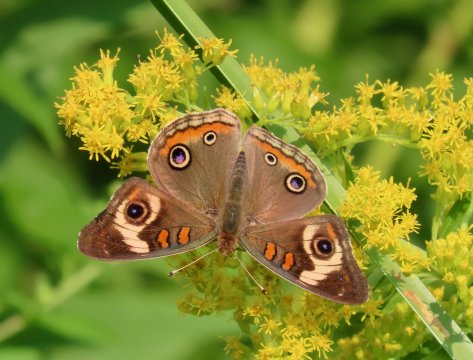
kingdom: Animalia
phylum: Arthropoda
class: Insecta
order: Lepidoptera
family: Nymphalidae
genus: Junonia
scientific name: Junonia coenia
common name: Common Buckeye
